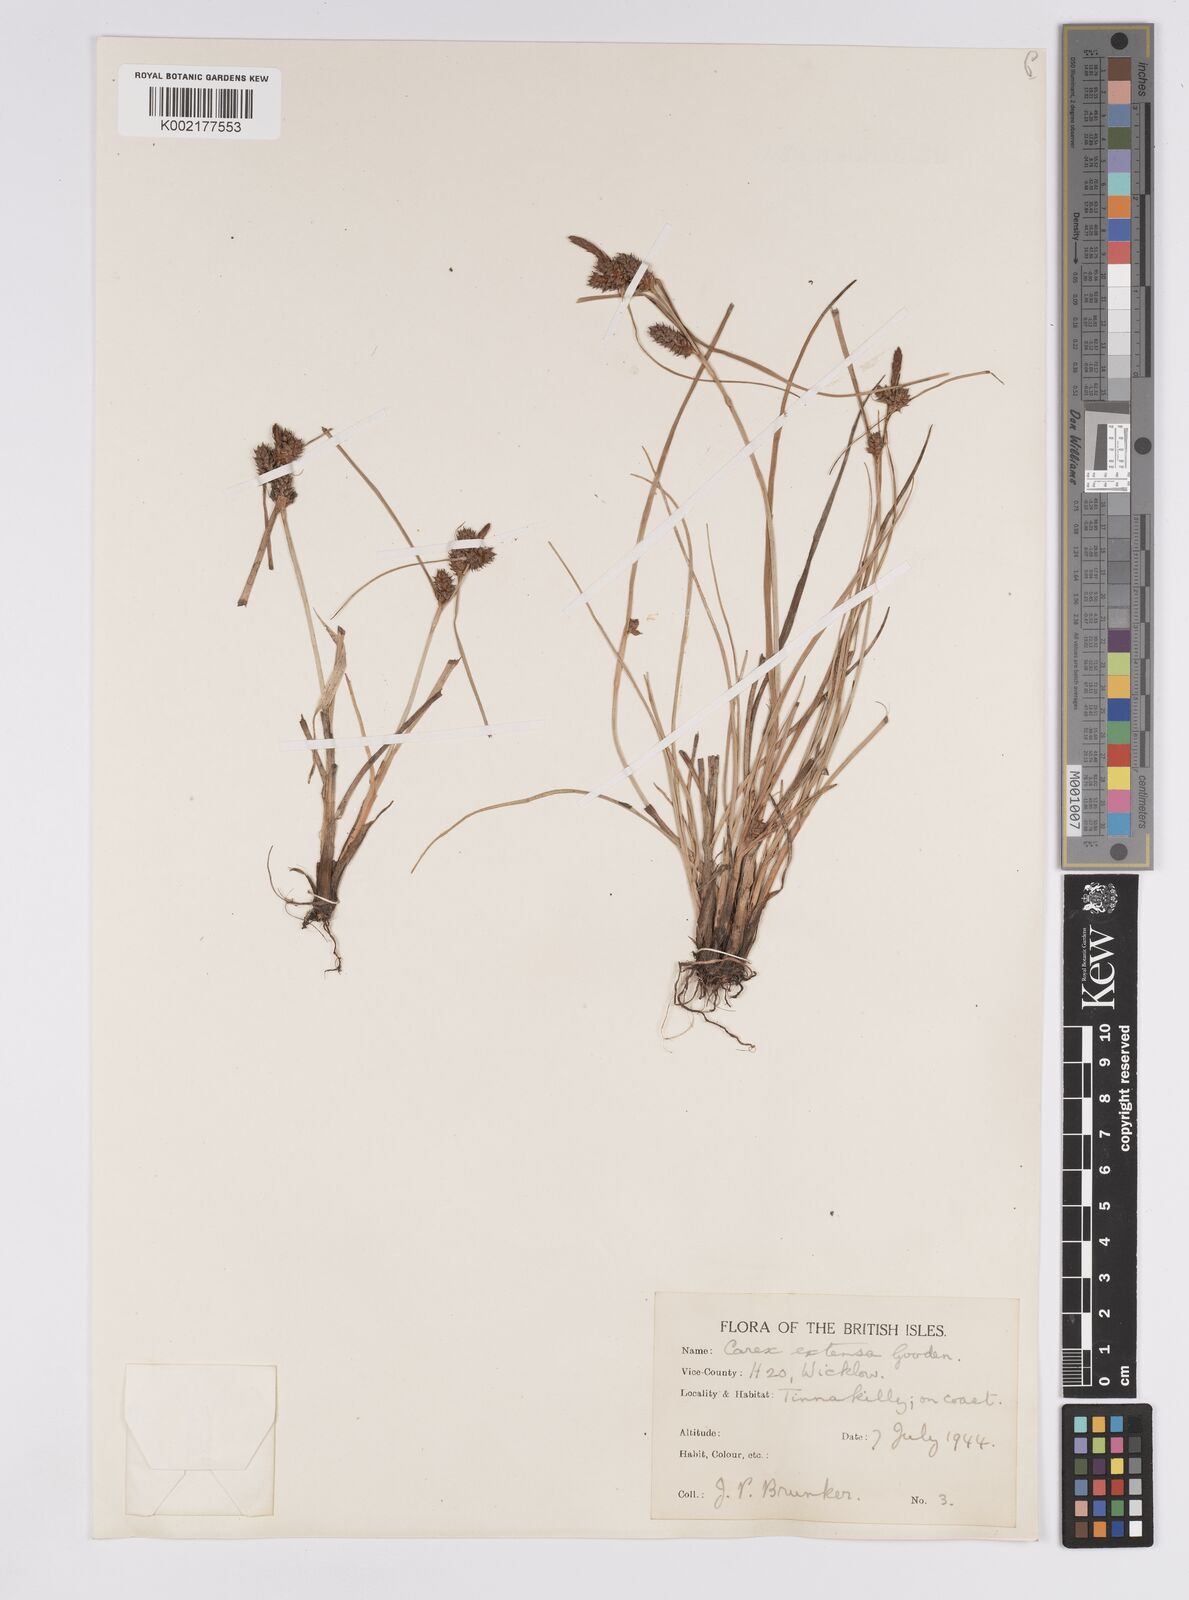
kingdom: Plantae
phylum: Tracheophyta
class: Liliopsida
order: Poales
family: Cyperaceae
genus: Carex
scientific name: Carex extensa
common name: Long-bracted sedge
